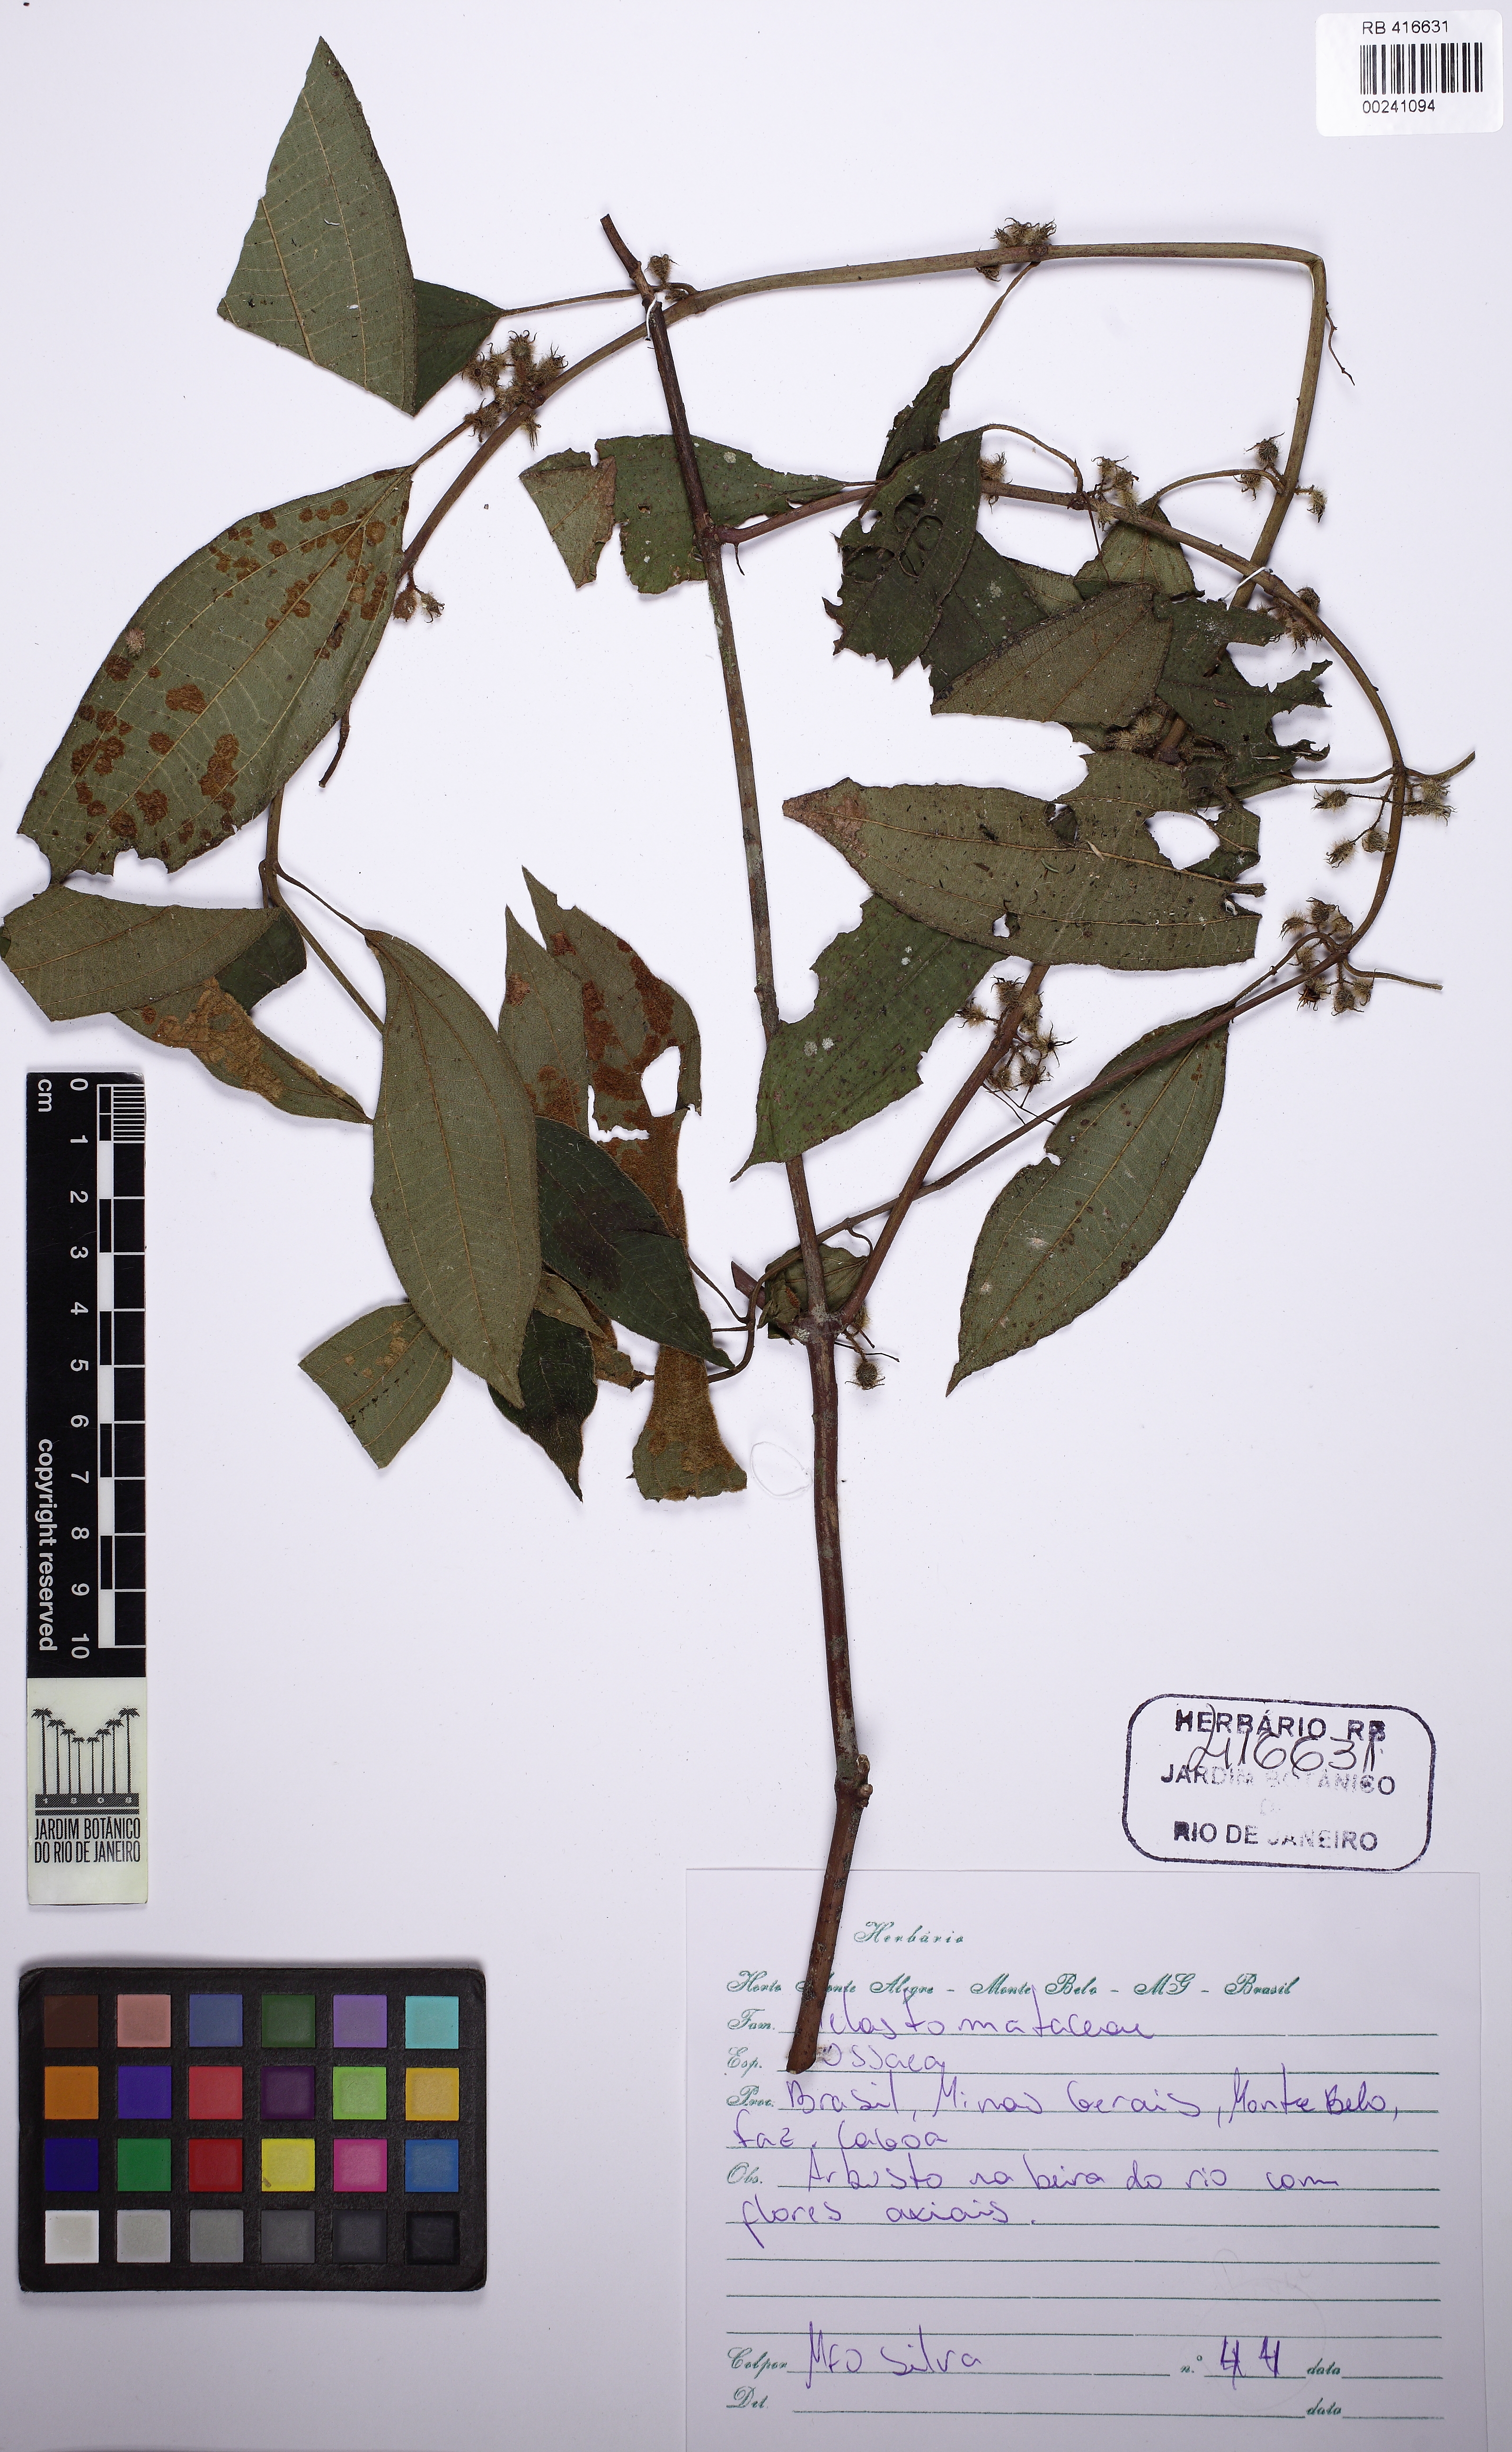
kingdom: Plantae
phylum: Tracheophyta
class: Magnoliopsida
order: Myrtales
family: Melastomataceae
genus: Ossaea
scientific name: Ossaea
